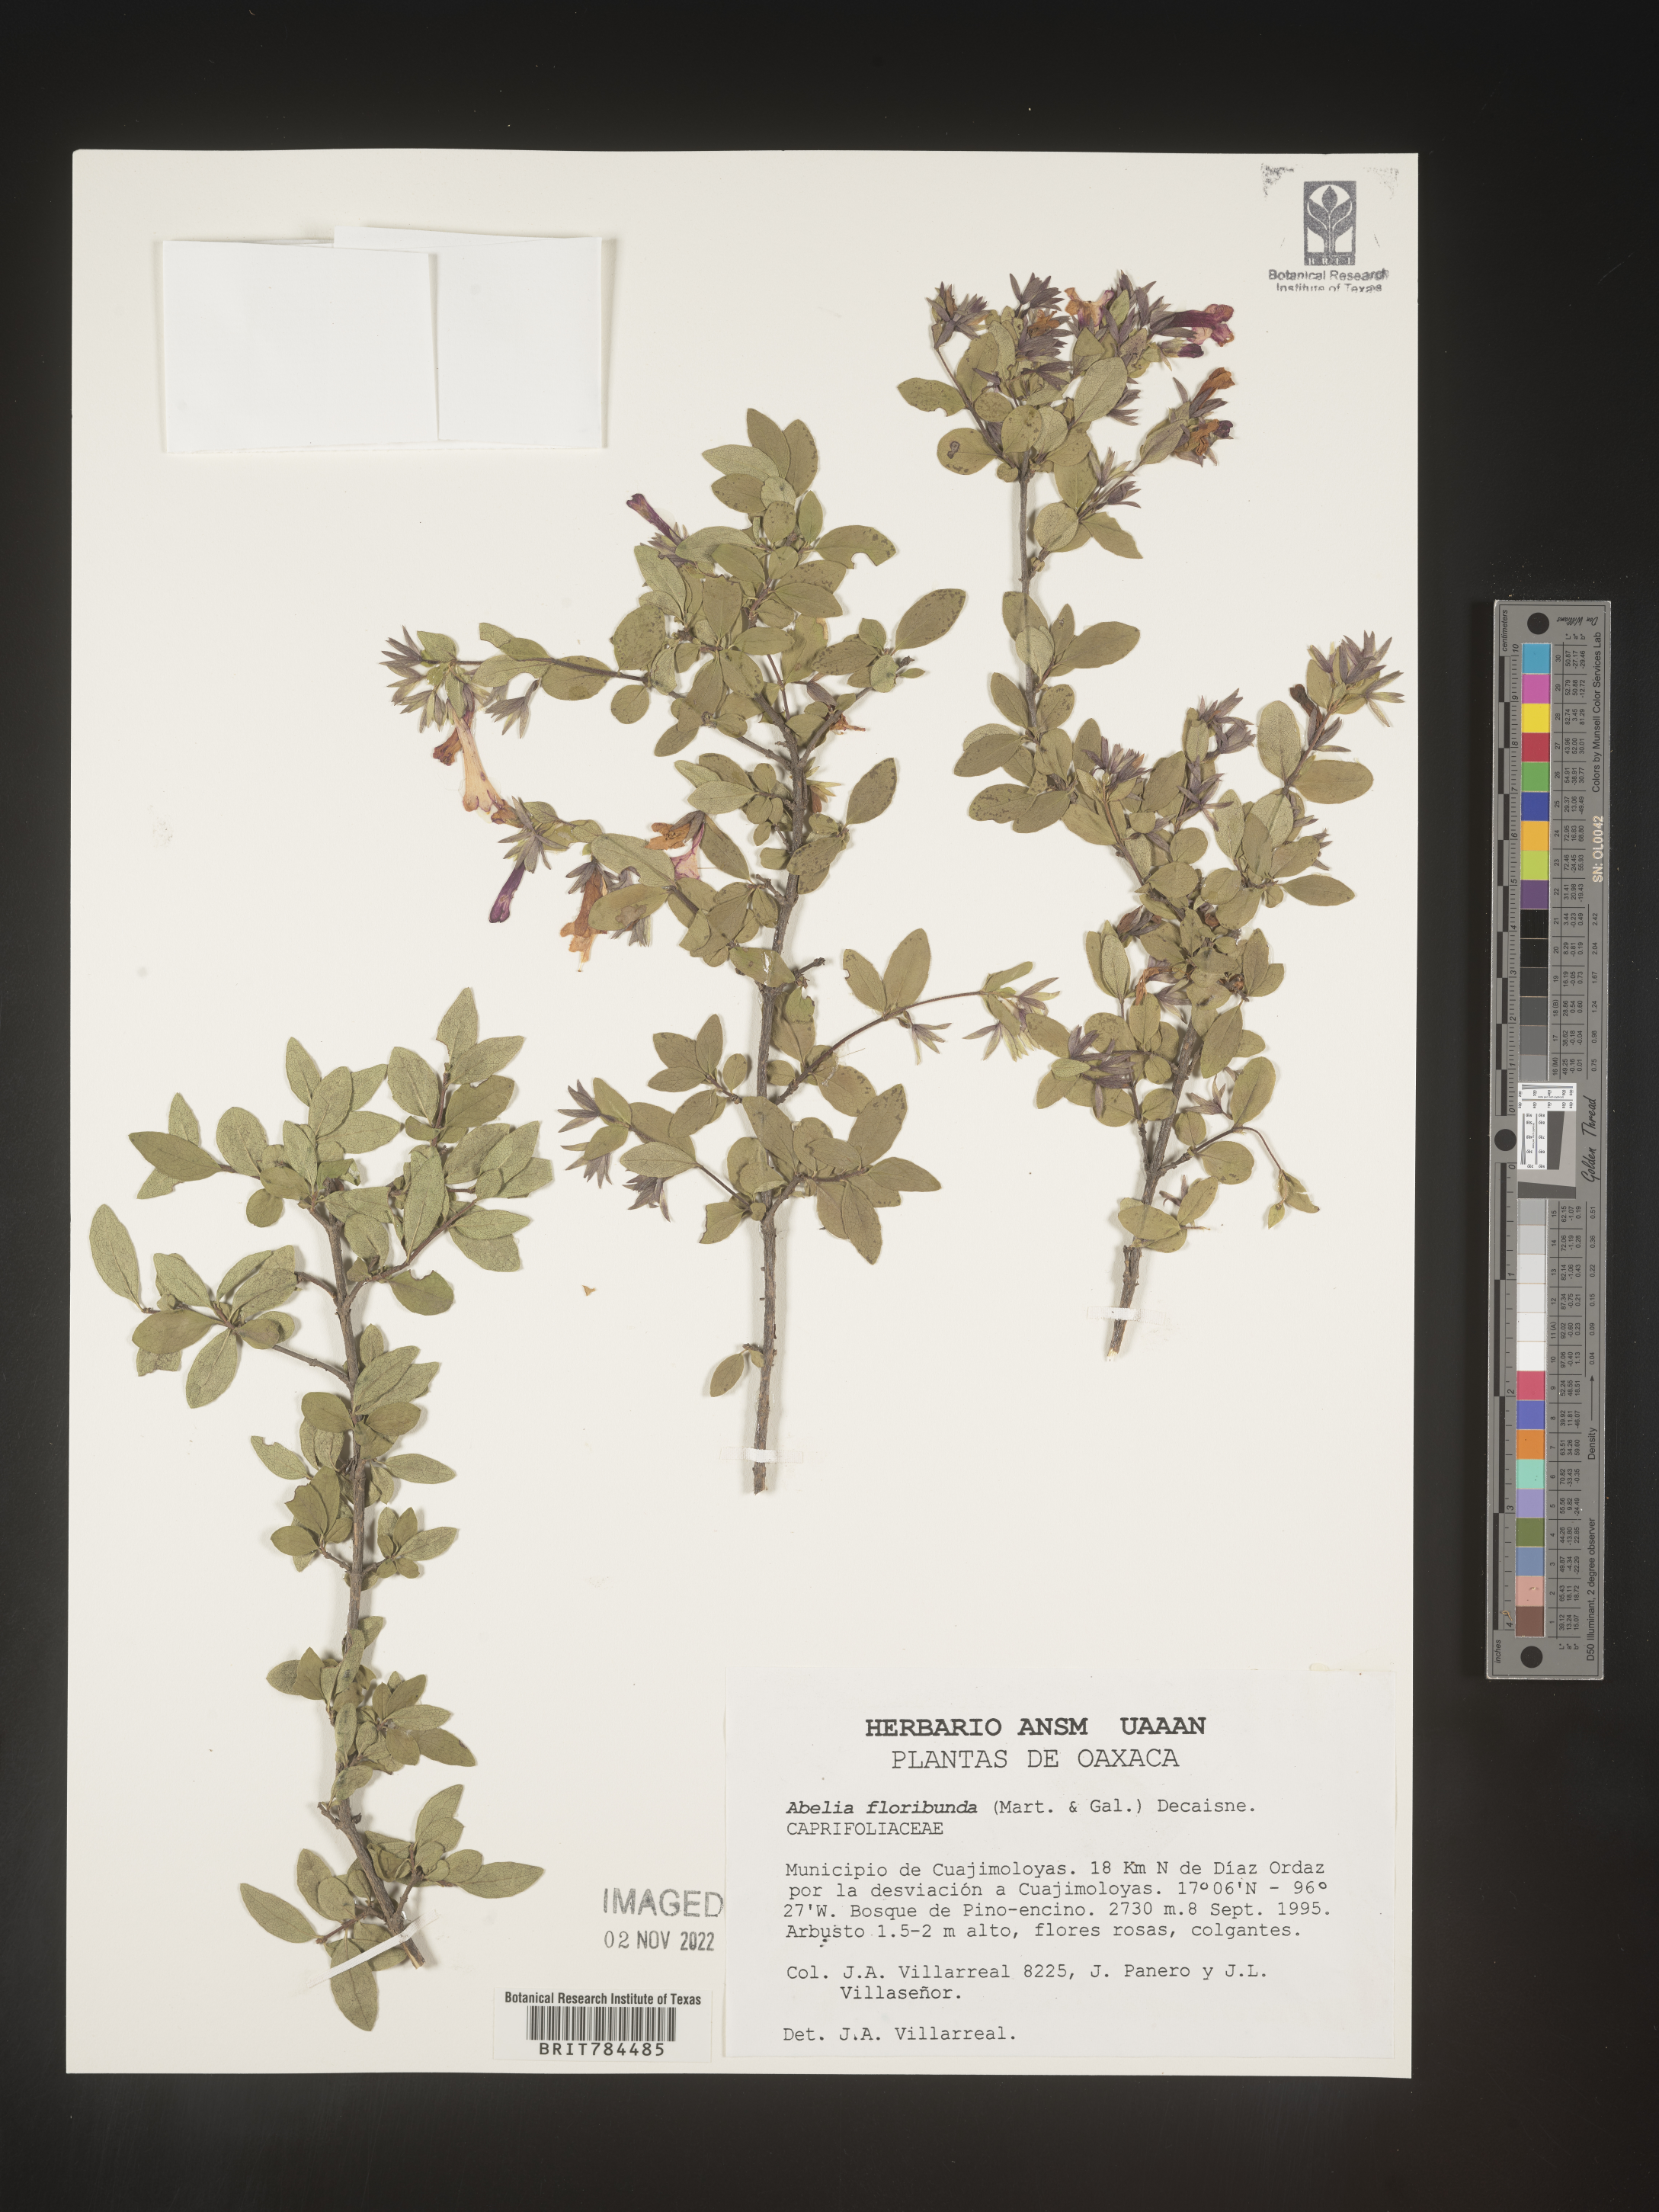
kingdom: Plantae
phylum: Tracheophyta
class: Magnoliopsida
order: Dipsacales
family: Caprifoliaceae
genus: Abelia
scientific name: Abelia
